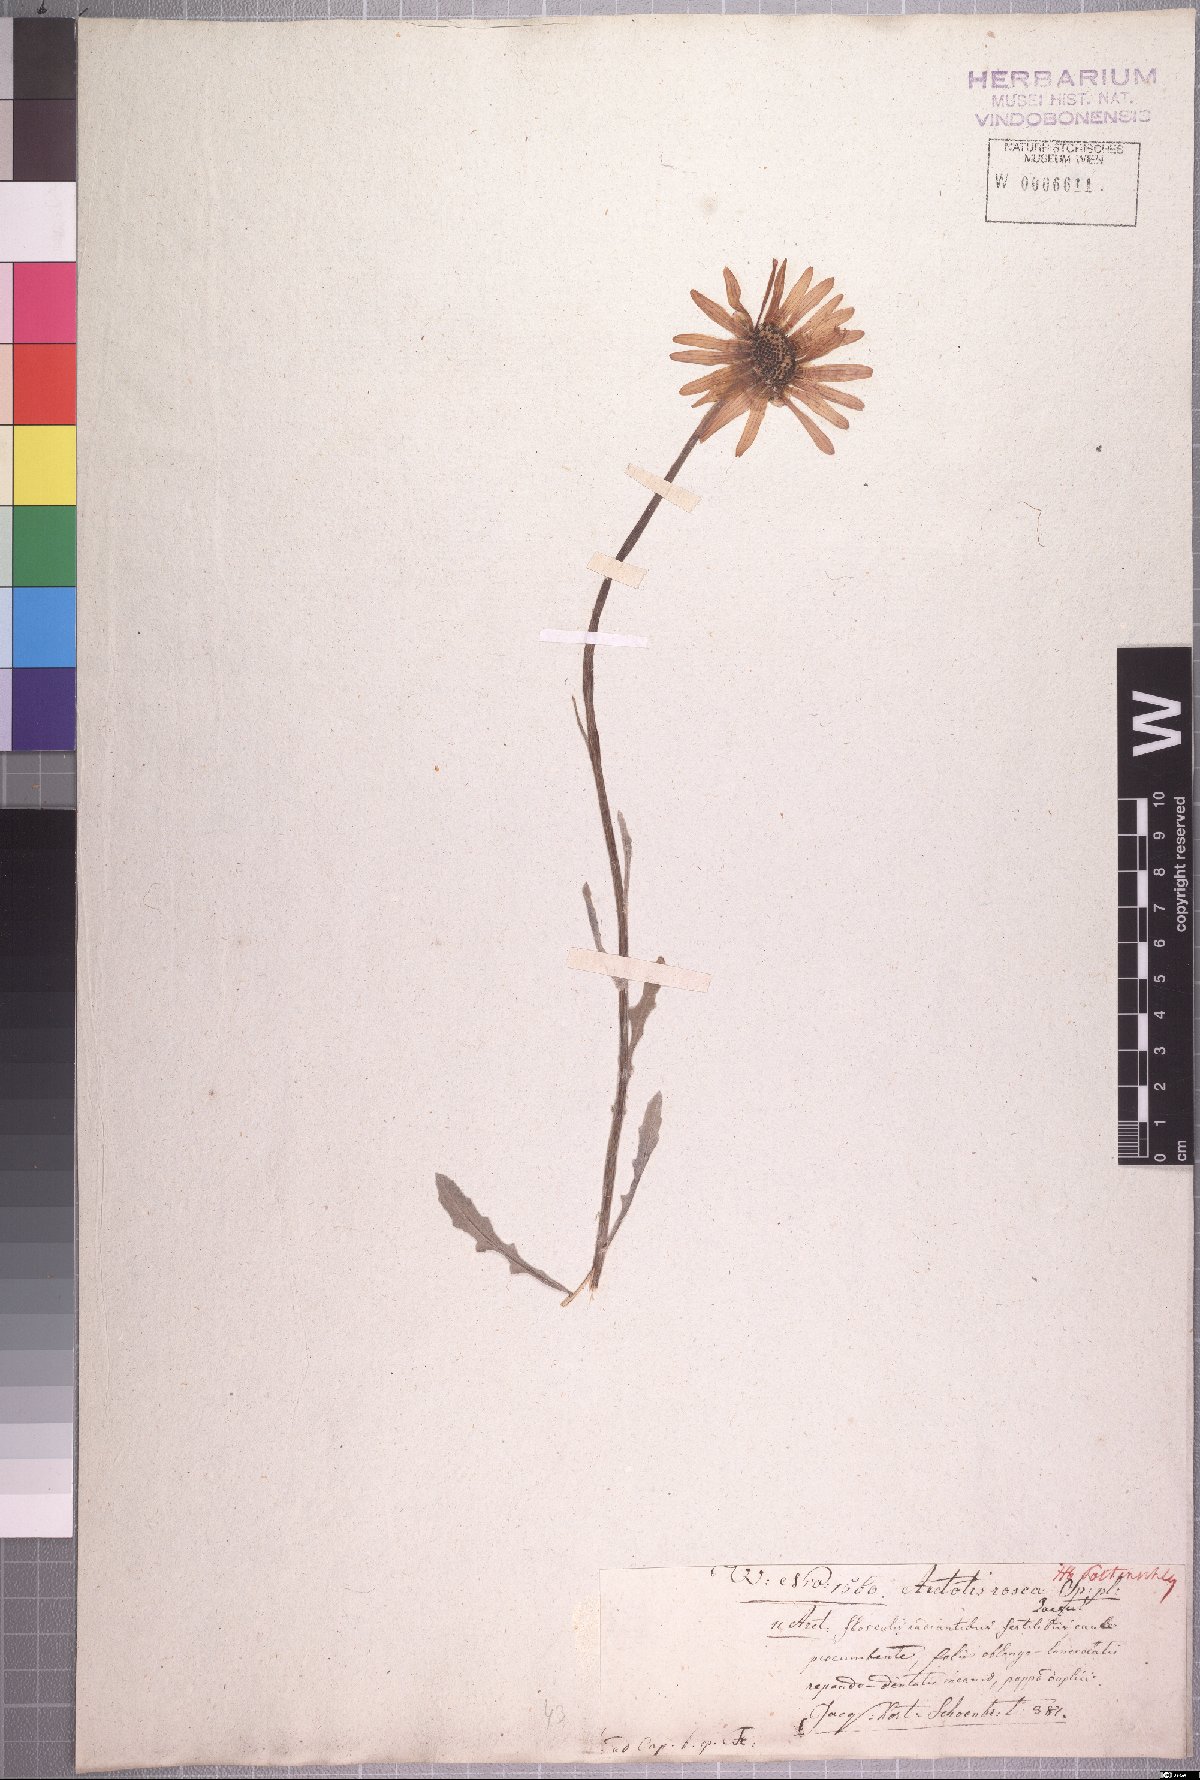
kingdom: Plantae
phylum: Tracheophyta
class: Magnoliopsida
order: Asterales
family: Asteraceae
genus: Arctotis
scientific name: Arctotis rosea
